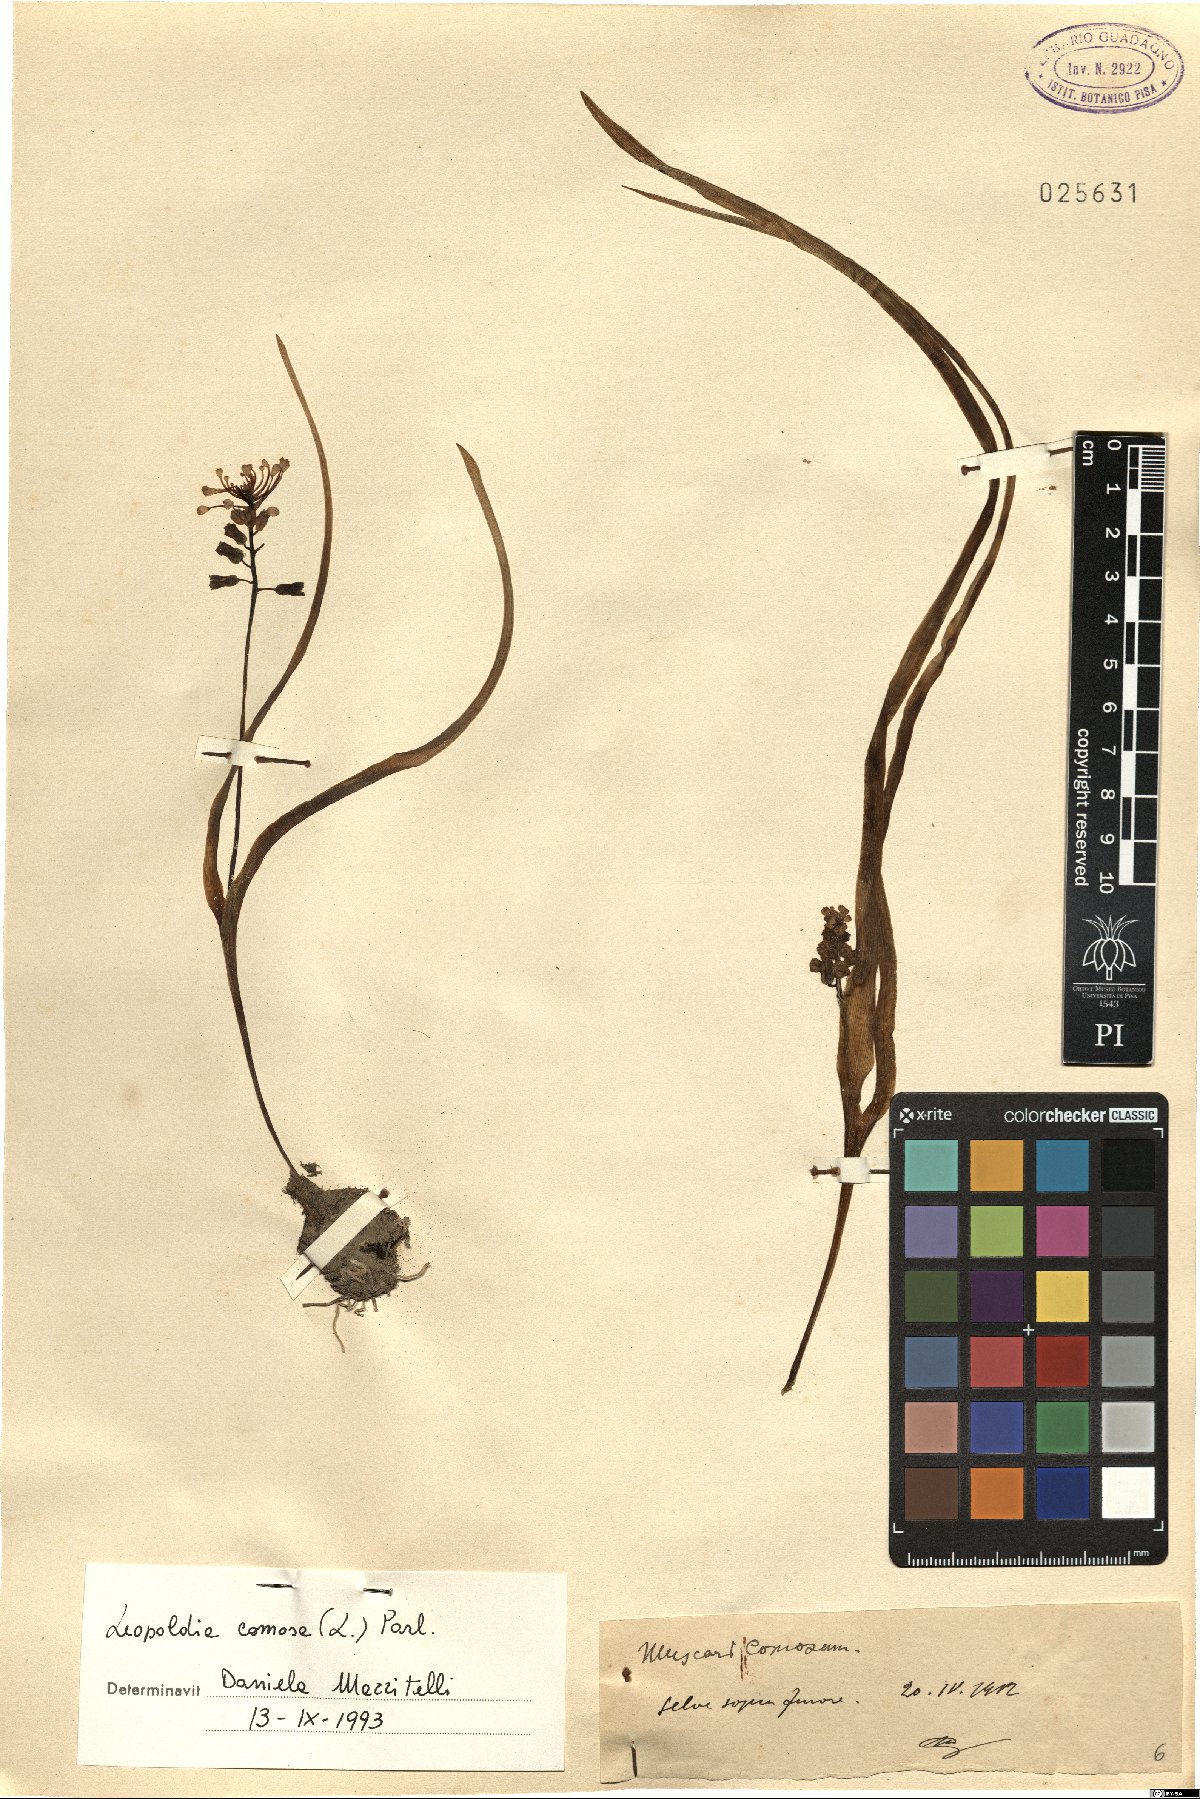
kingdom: Plantae
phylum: Tracheophyta
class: Liliopsida
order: Asparagales
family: Asparagaceae
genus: Muscari
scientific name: Muscari comosum
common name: Tassel hyacinth
